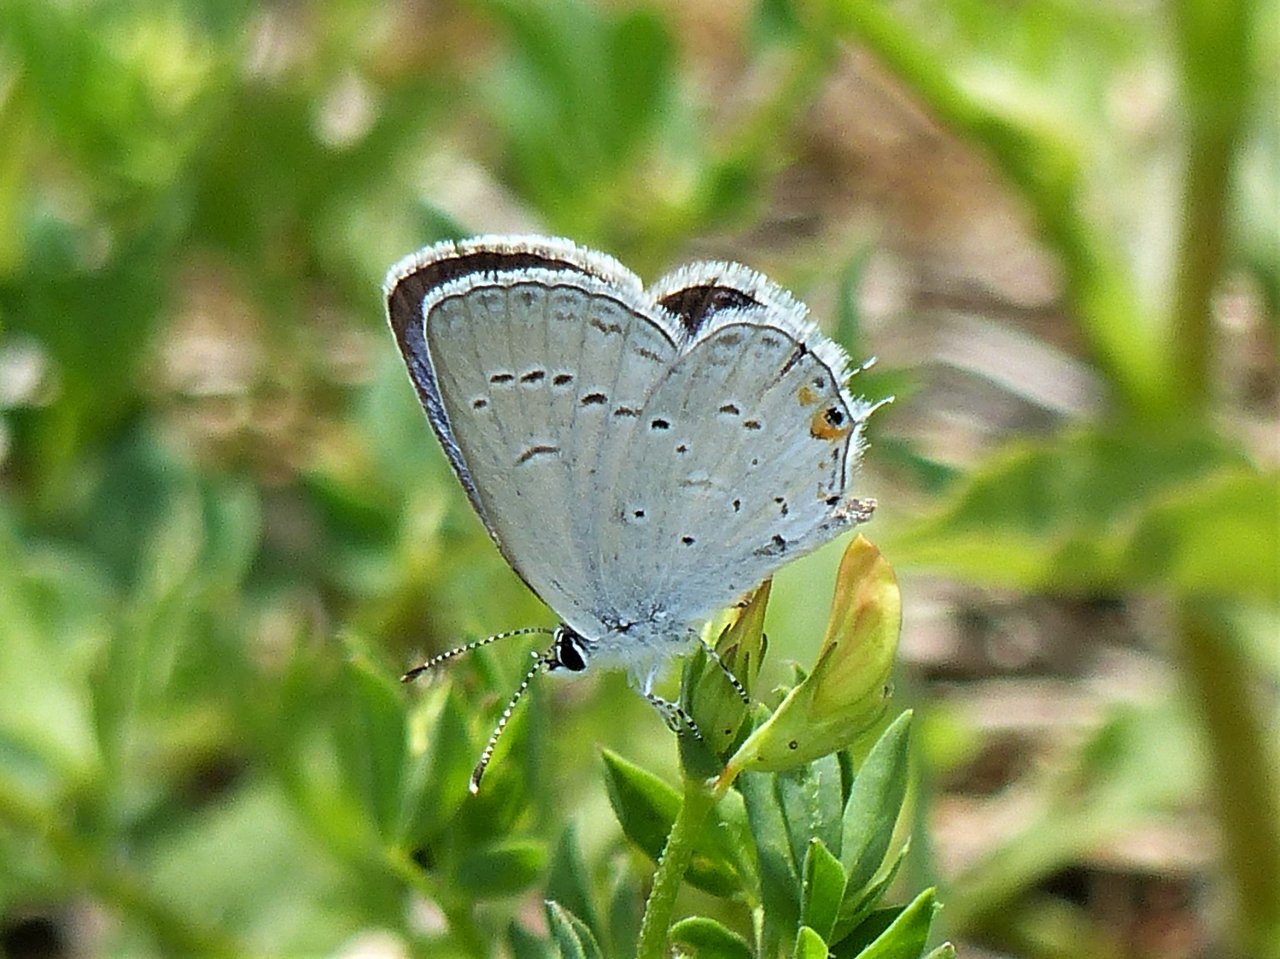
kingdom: Animalia
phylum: Arthropoda
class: Insecta
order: Lepidoptera
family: Lycaenidae
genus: Elkalyce
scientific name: Elkalyce comyntas
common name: Eastern Tailed-Blue
